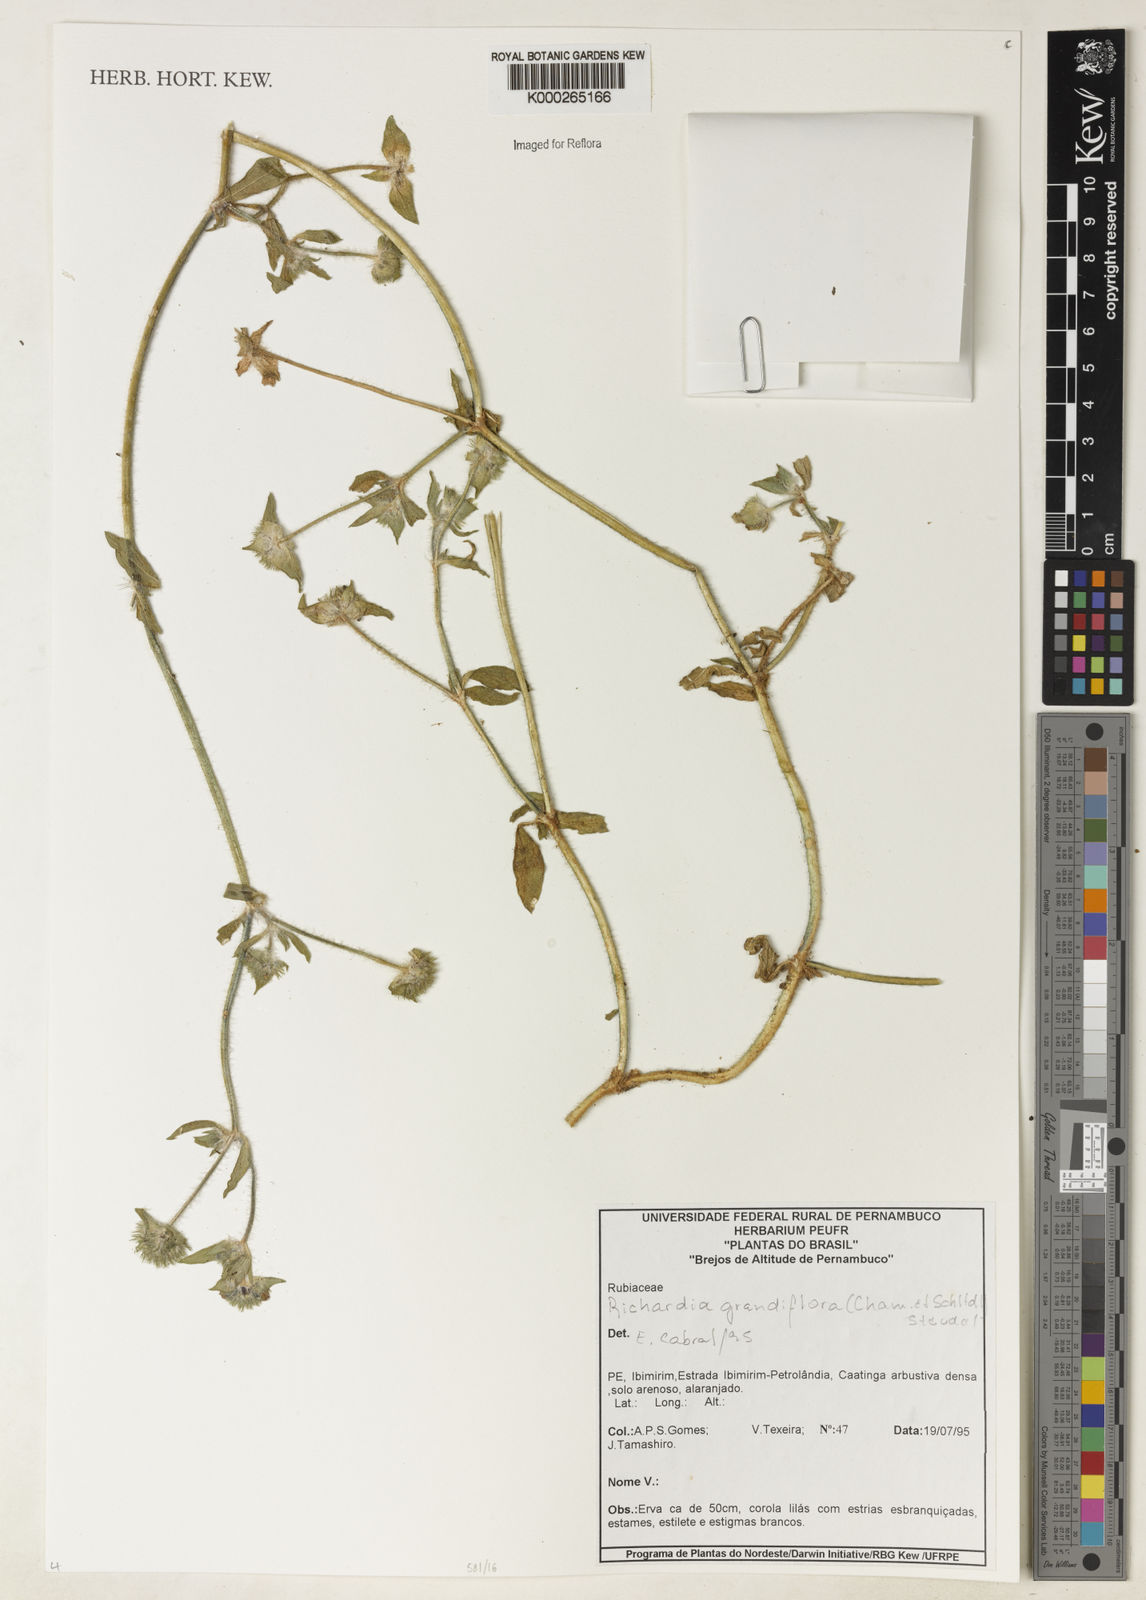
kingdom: Plantae
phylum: Tracheophyta
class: Magnoliopsida
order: Gentianales
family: Rubiaceae
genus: Richardia
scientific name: Richardia grandiflora
